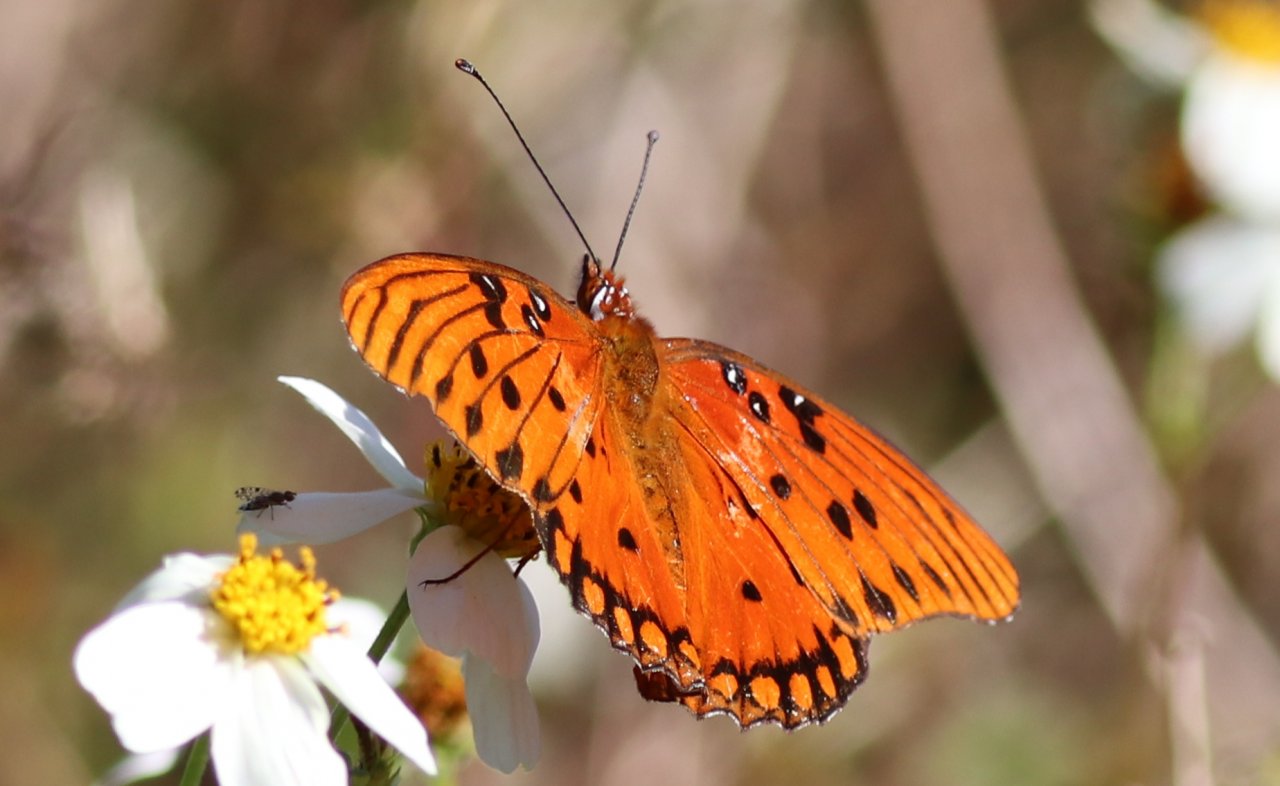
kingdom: Animalia
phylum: Arthropoda
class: Insecta
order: Lepidoptera
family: Nymphalidae
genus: Dione
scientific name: Dione vanillae
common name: Gulf Fritillary
